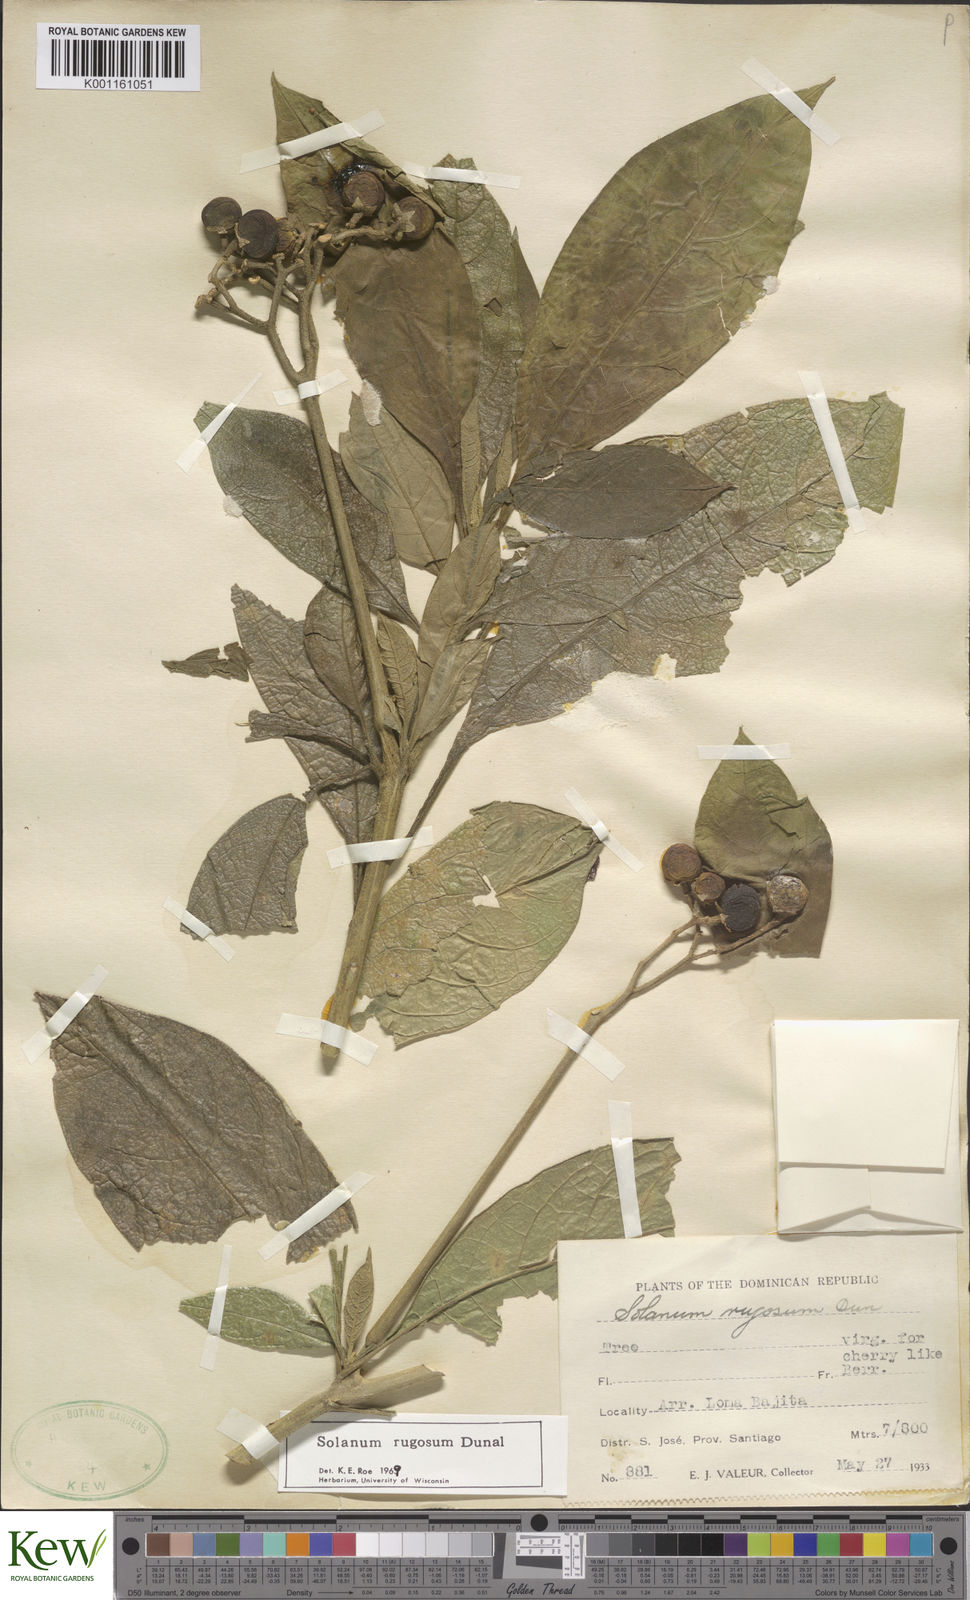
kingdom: Plantae
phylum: Tracheophyta
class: Magnoliopsida
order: Solanales
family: Solanaceae
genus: Solanum
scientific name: Solanum rugosum
